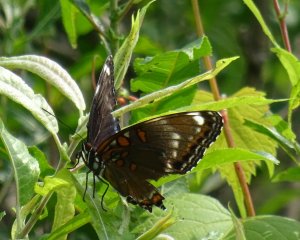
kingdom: Animalia
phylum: Arthropoda
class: Insecta
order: Lepidoptera
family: Nymphalidae
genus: Limenitis
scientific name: Limenitis astyanax
